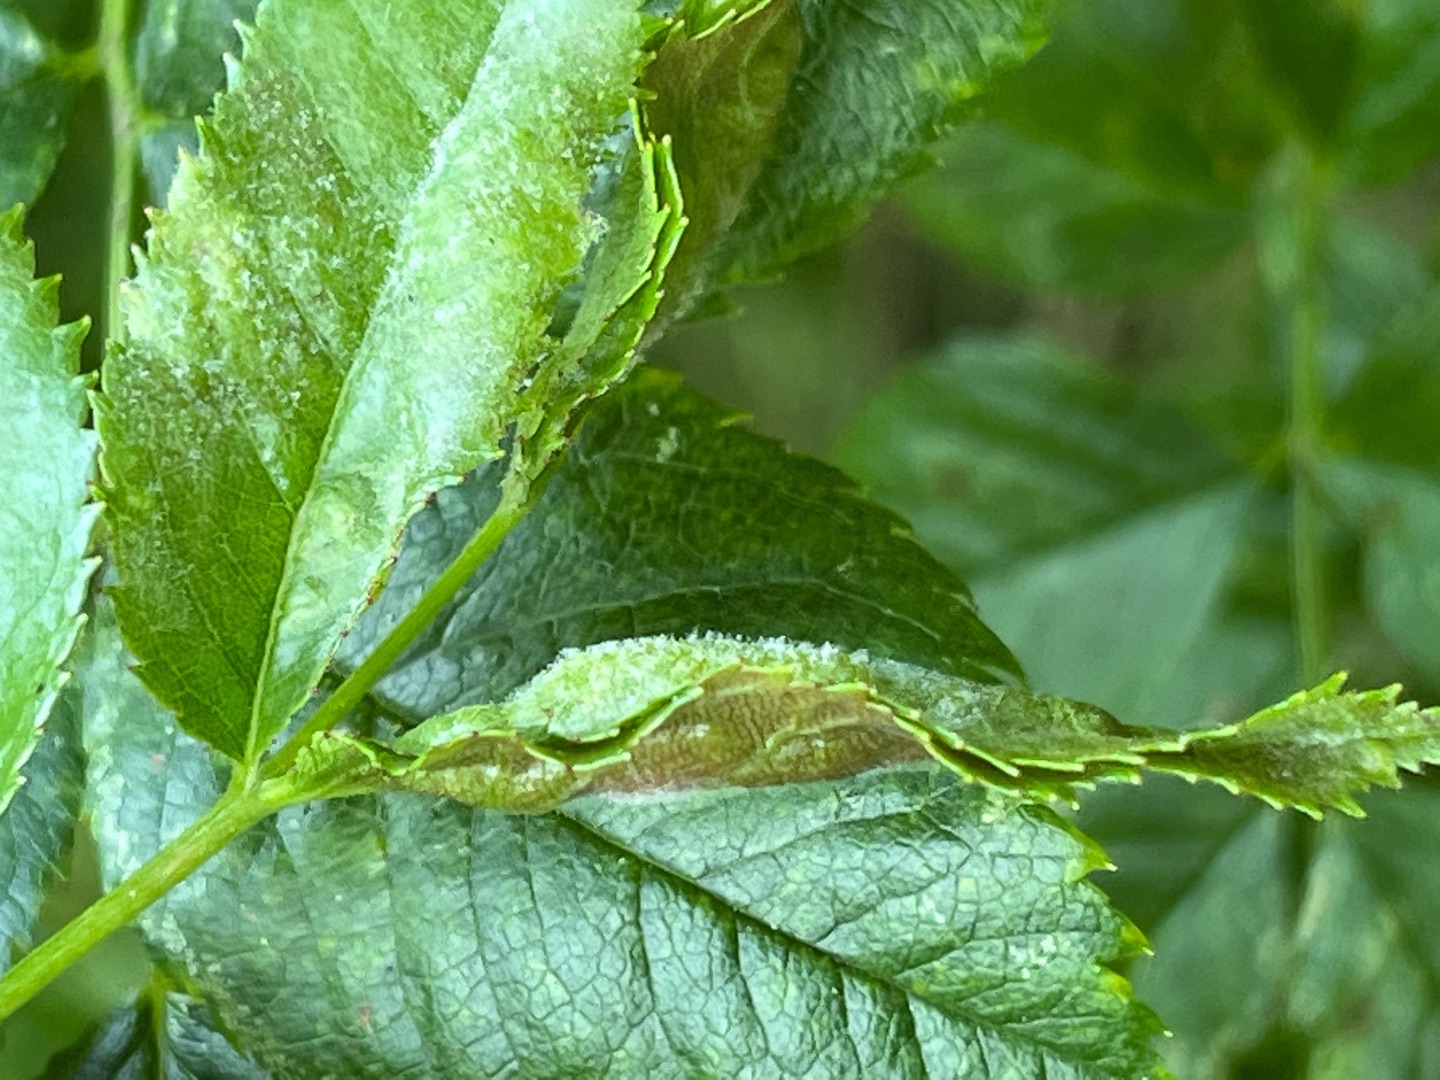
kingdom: Animalia
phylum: Arthropoda
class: Insecta
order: Diptera
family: Cecidomyiidae
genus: Wachtliella
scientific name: Wachtliella rosae
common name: Rosenbladgalmyg
